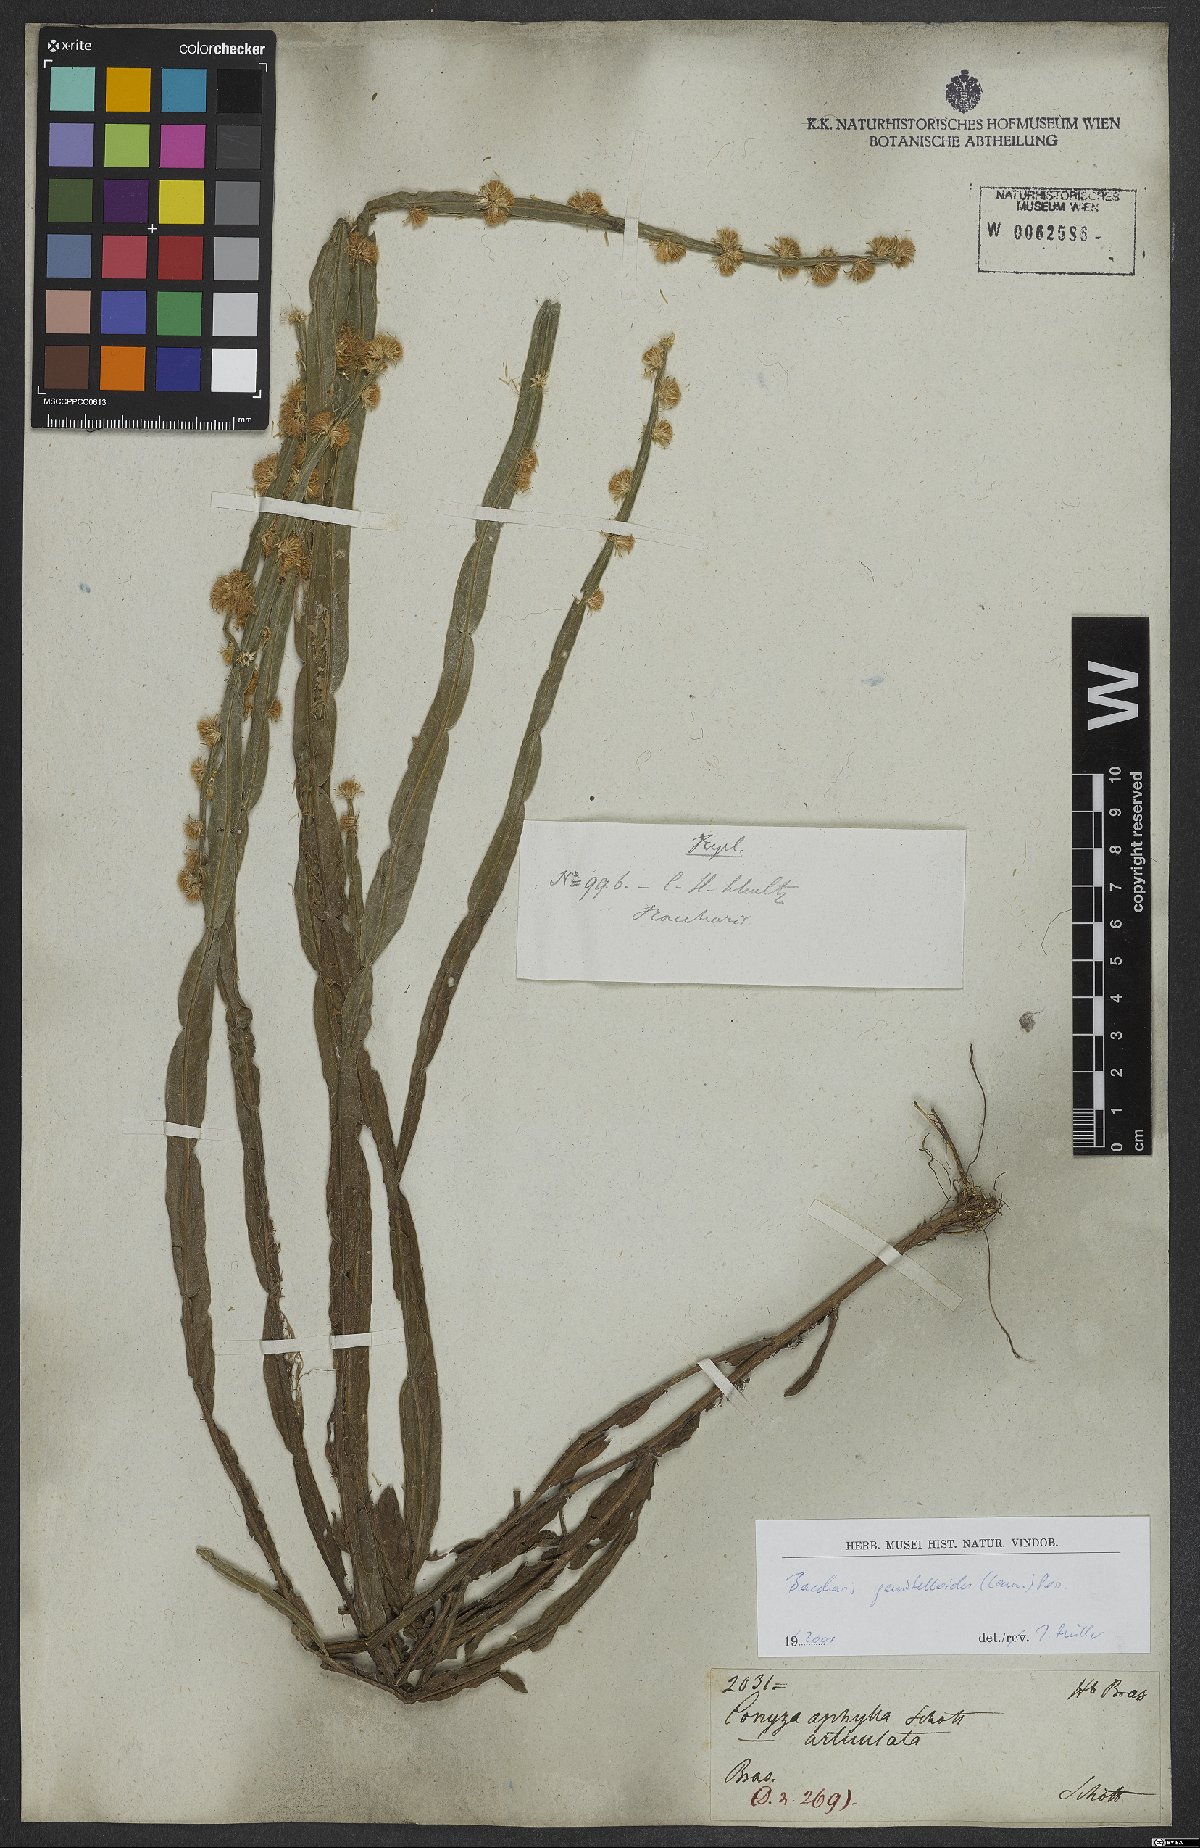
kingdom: Plantae
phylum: Tracheophyta
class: Magnoliopsida
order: Asterales
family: Asteraceae
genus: Baccharis
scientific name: Baccharis genistelloides
